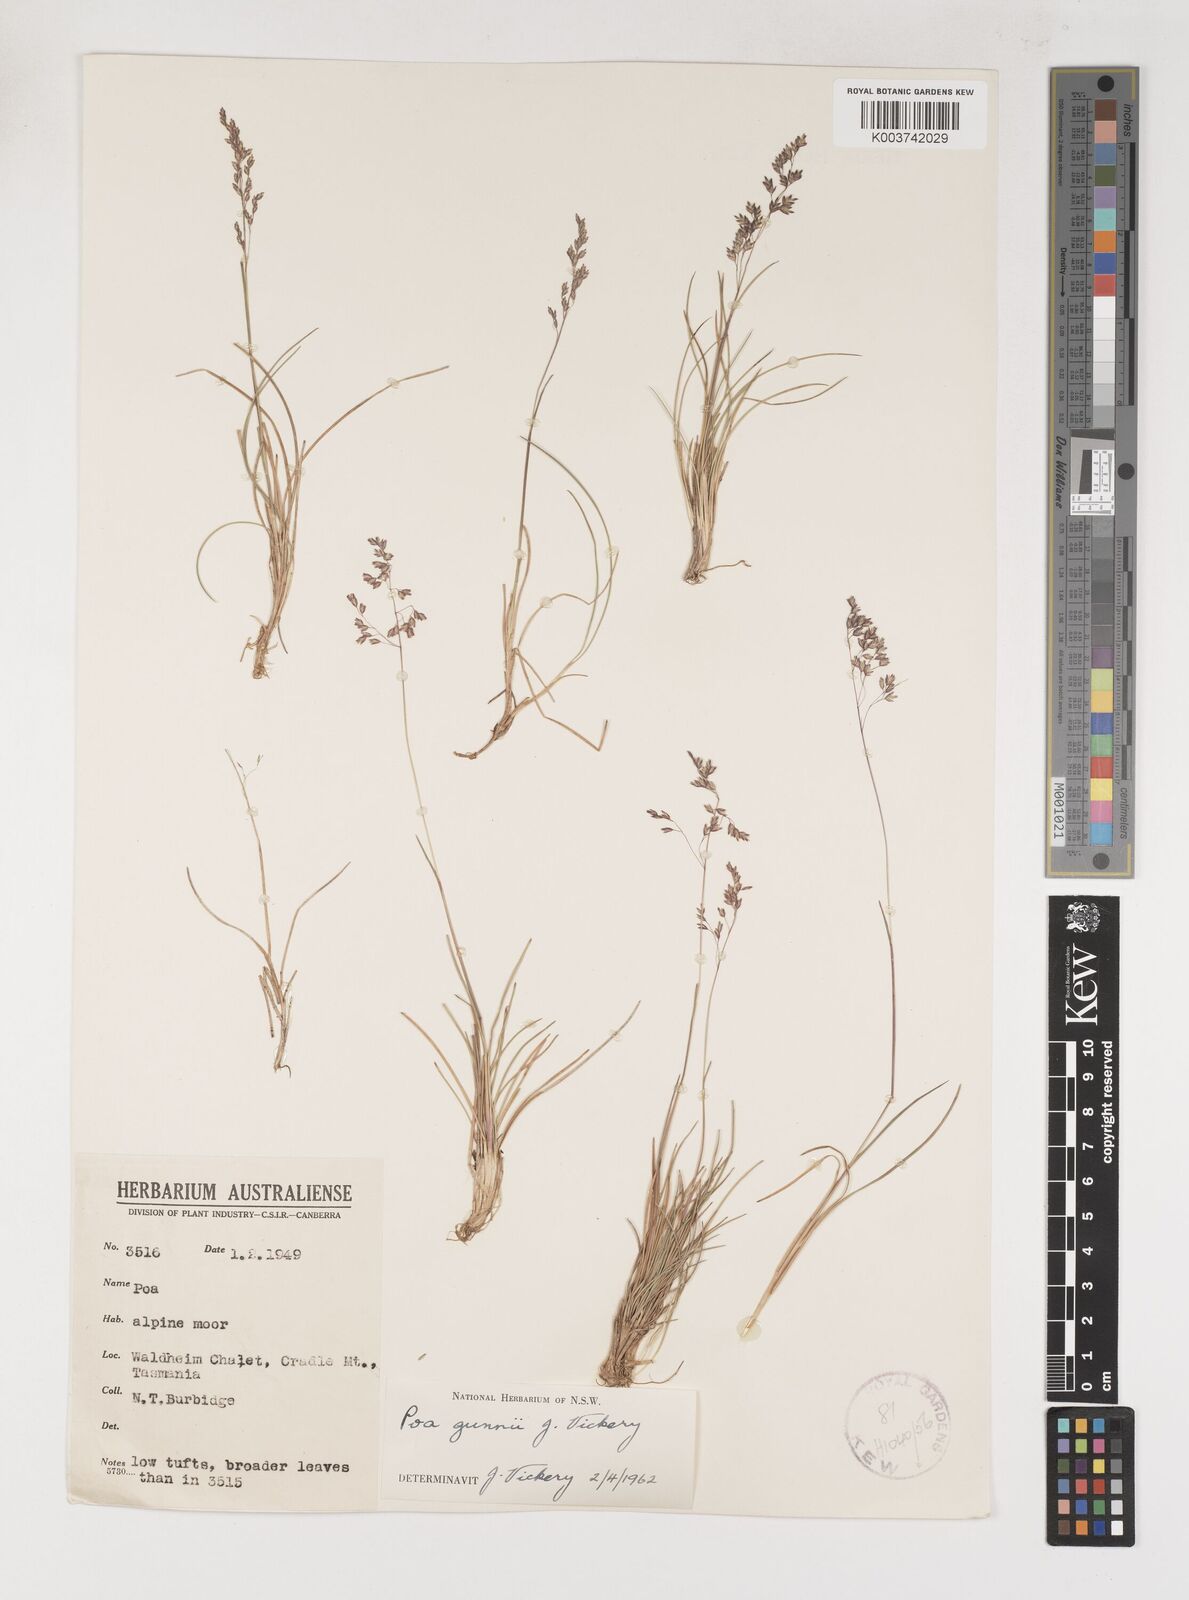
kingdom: Plantae
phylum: Tracheophyta
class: Liliopsida
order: Poales
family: Poaceae
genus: Poa
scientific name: Poa gunnii
